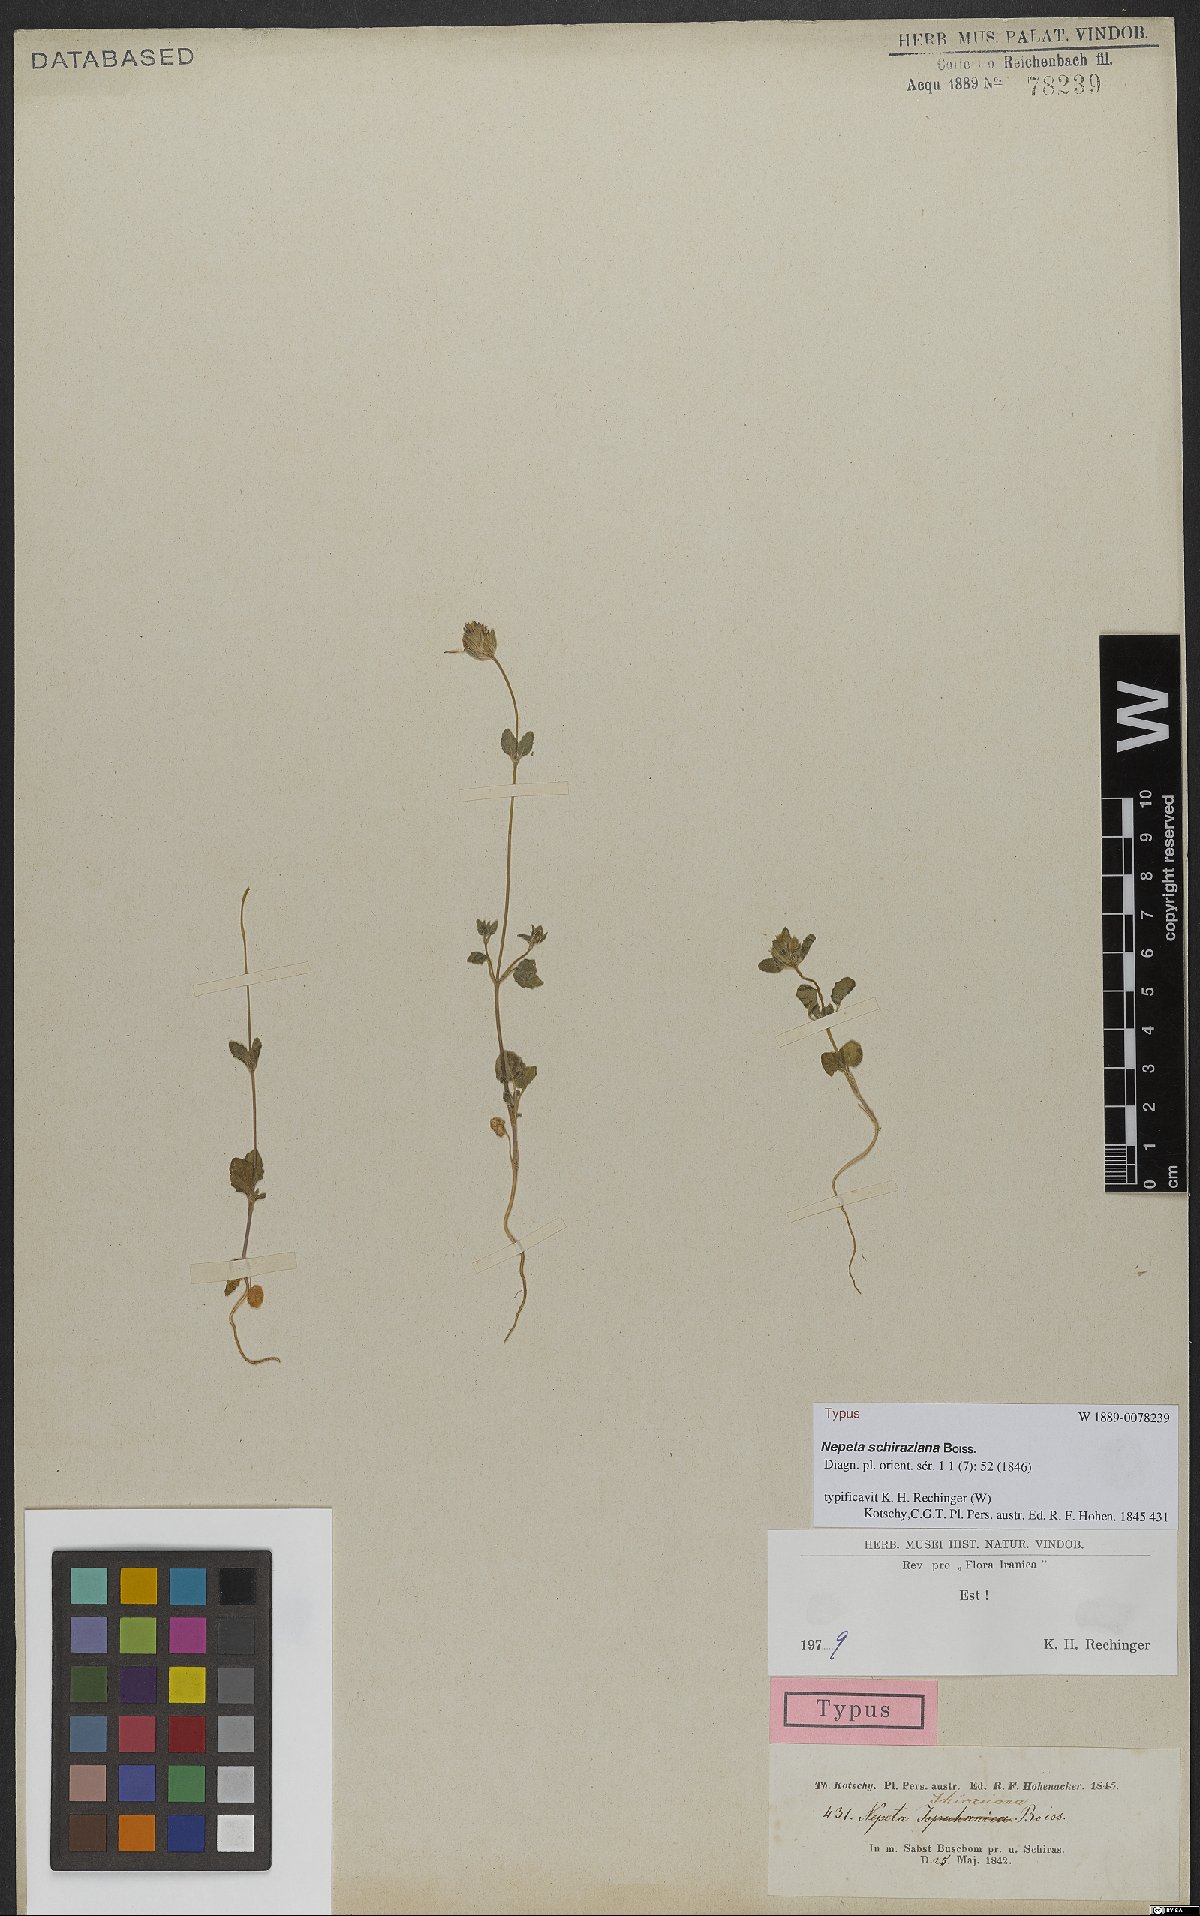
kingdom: Plantae
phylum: Tracheophyta
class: Magnoliopsida
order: Lamiales
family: Lamiaceae
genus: Nepeta
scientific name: Nepeta schiraziana
